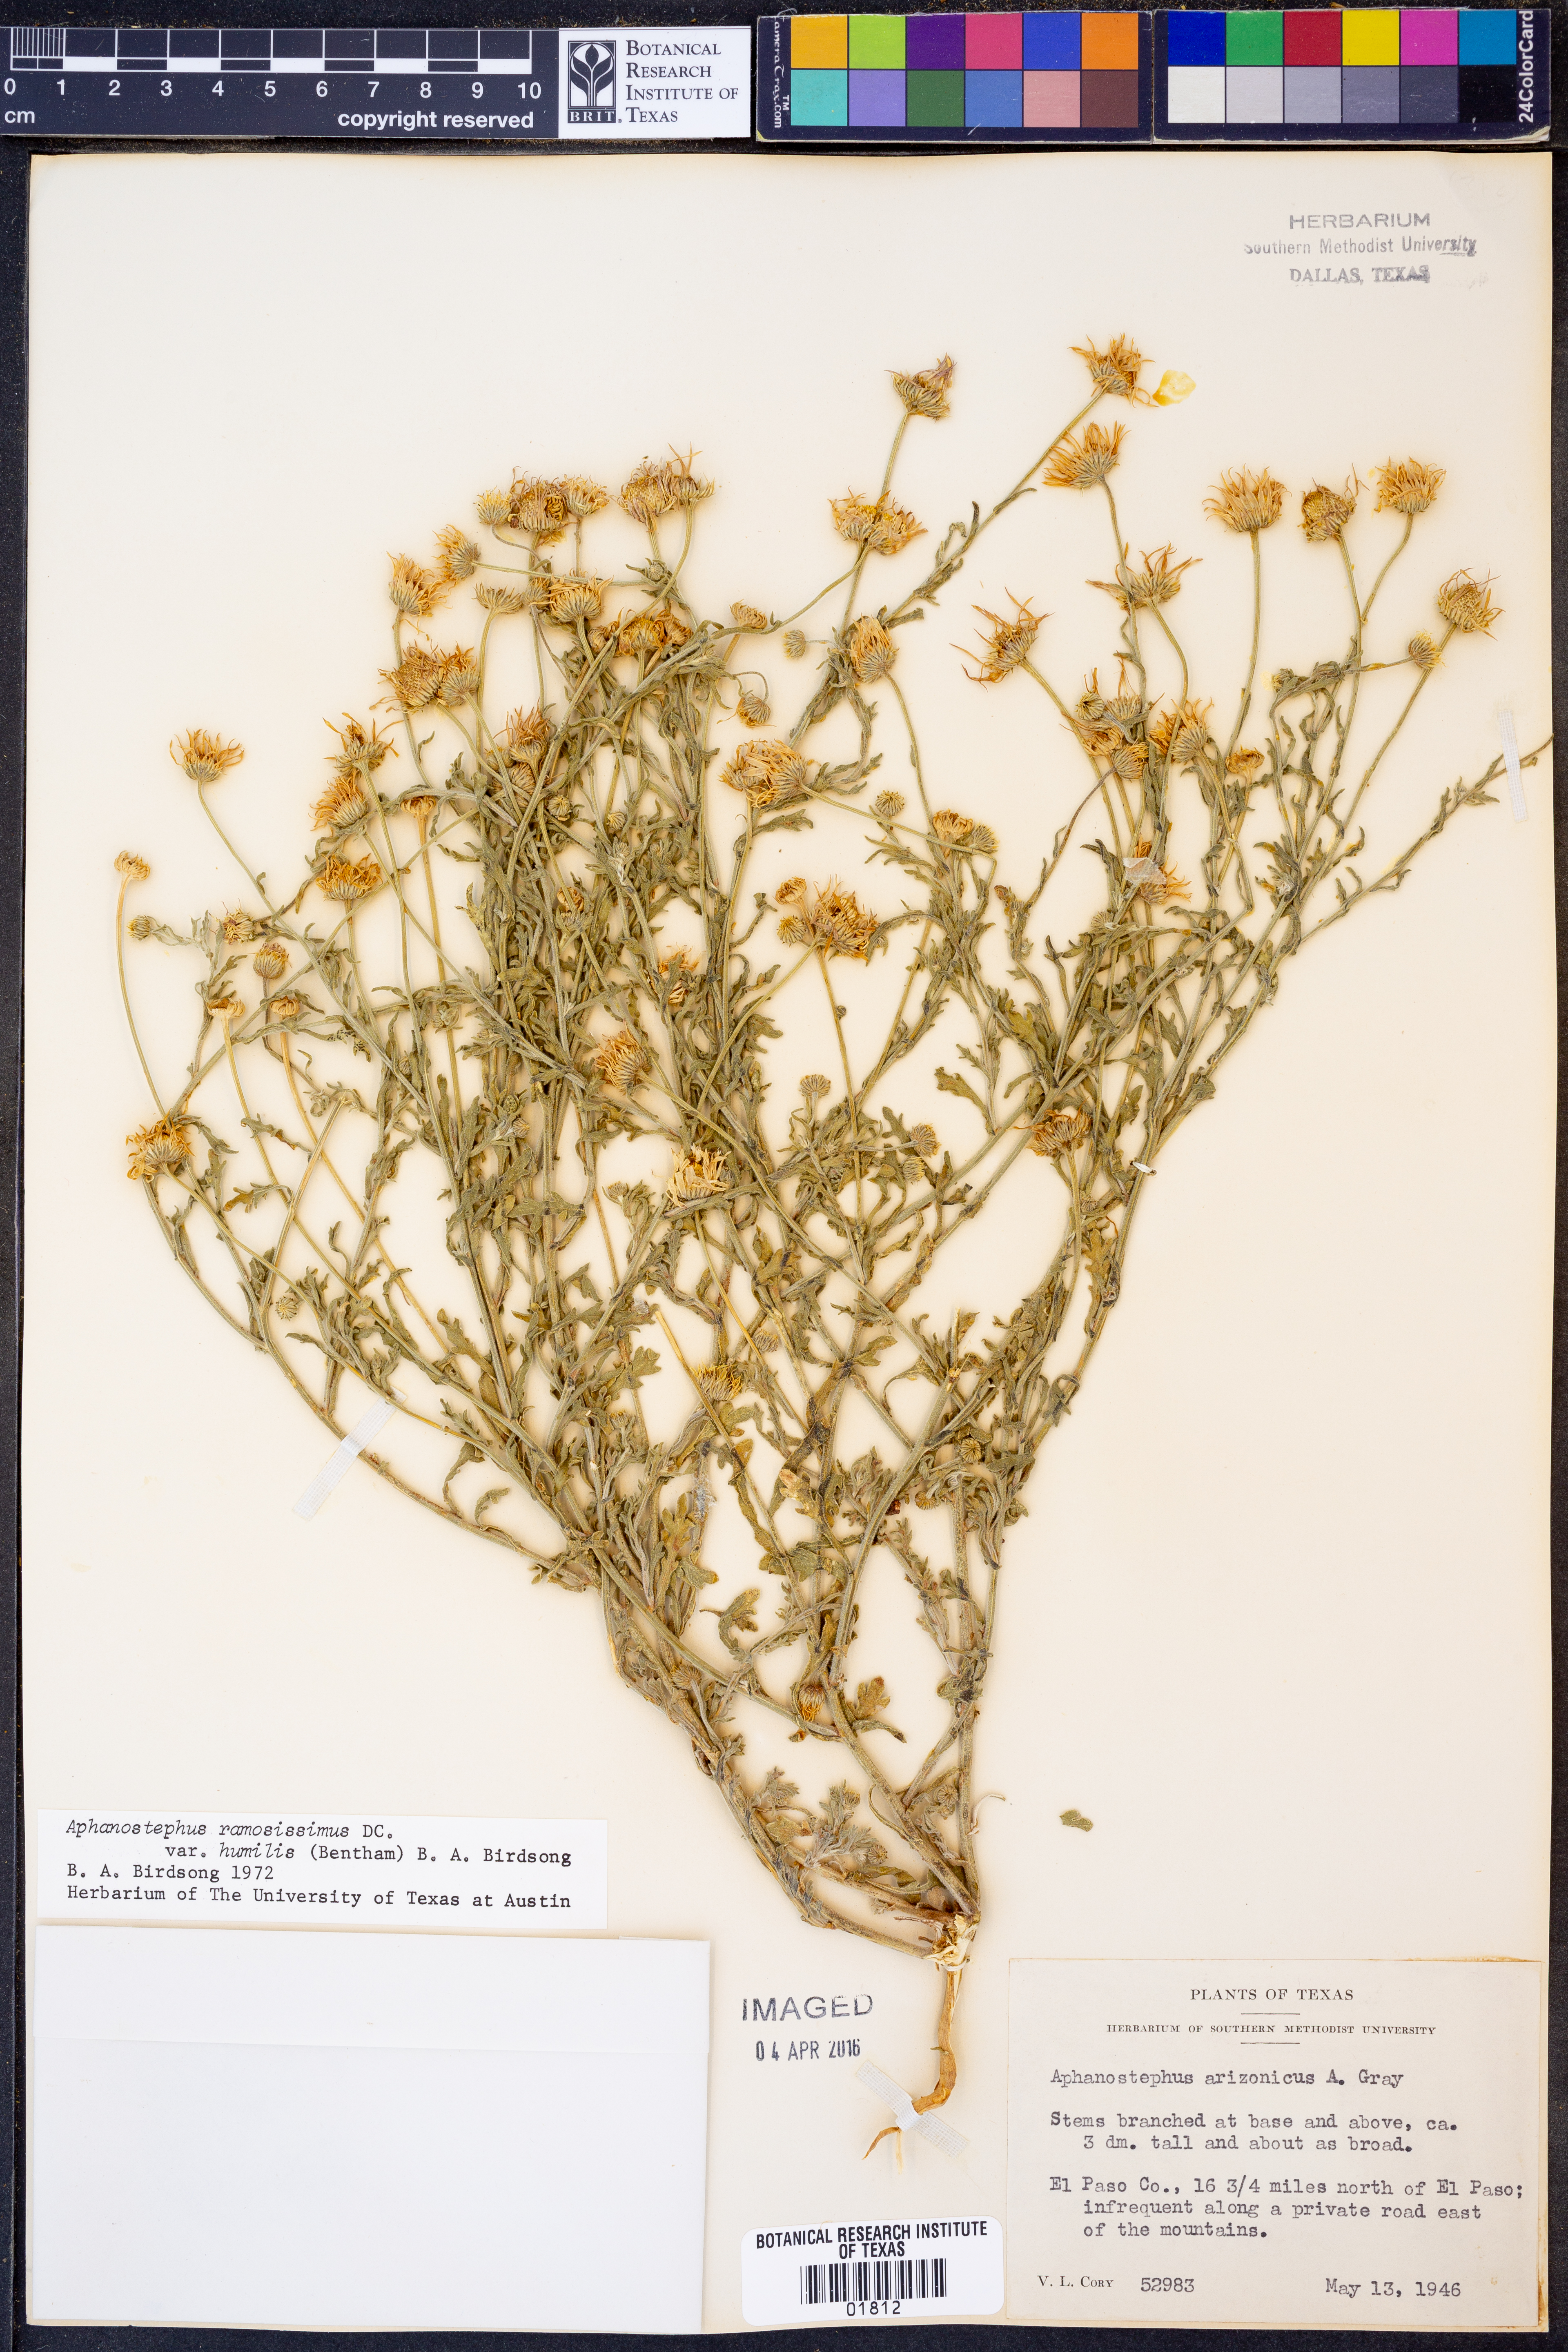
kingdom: Plantae
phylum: Tracheophyta
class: Magnoliopsida
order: Asterales
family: Asteraceae
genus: Aphanostephus
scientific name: Aphanostephus ramosissimus
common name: Plains lazy daisy
